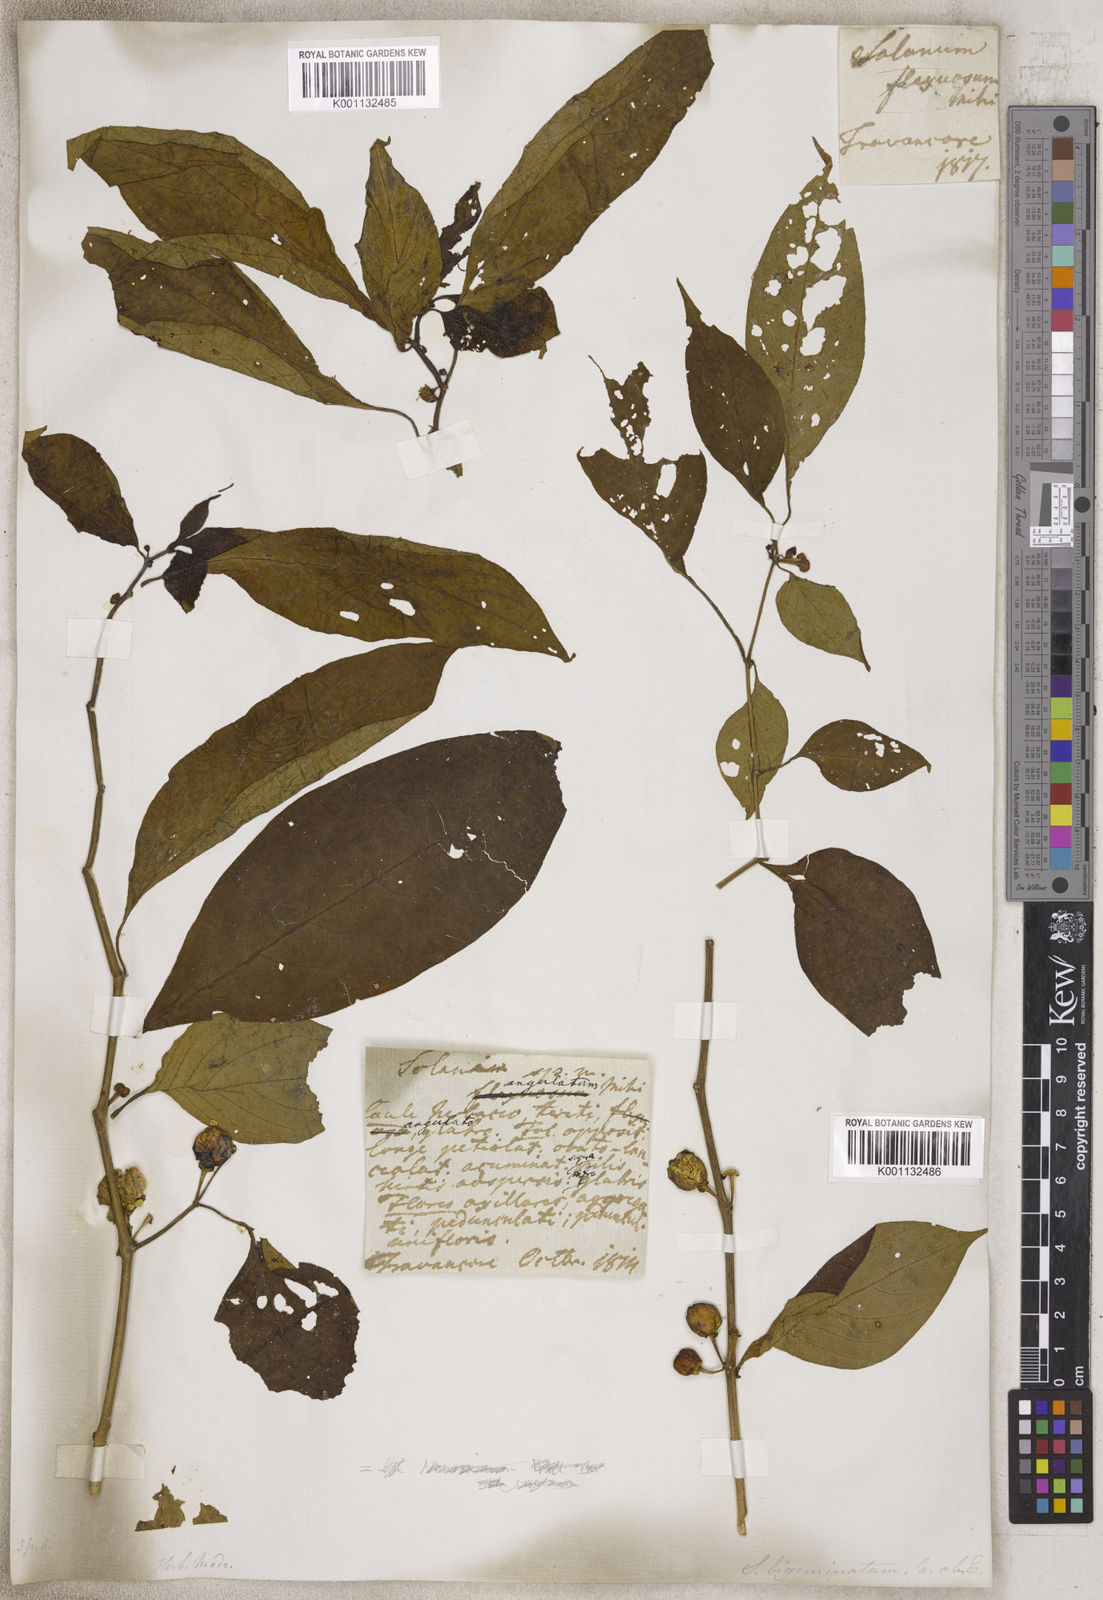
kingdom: Plantae
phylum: Tracheophyta
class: Magnoliopsida
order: Solanales
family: Solanaceae
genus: Solanum
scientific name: Solanum
